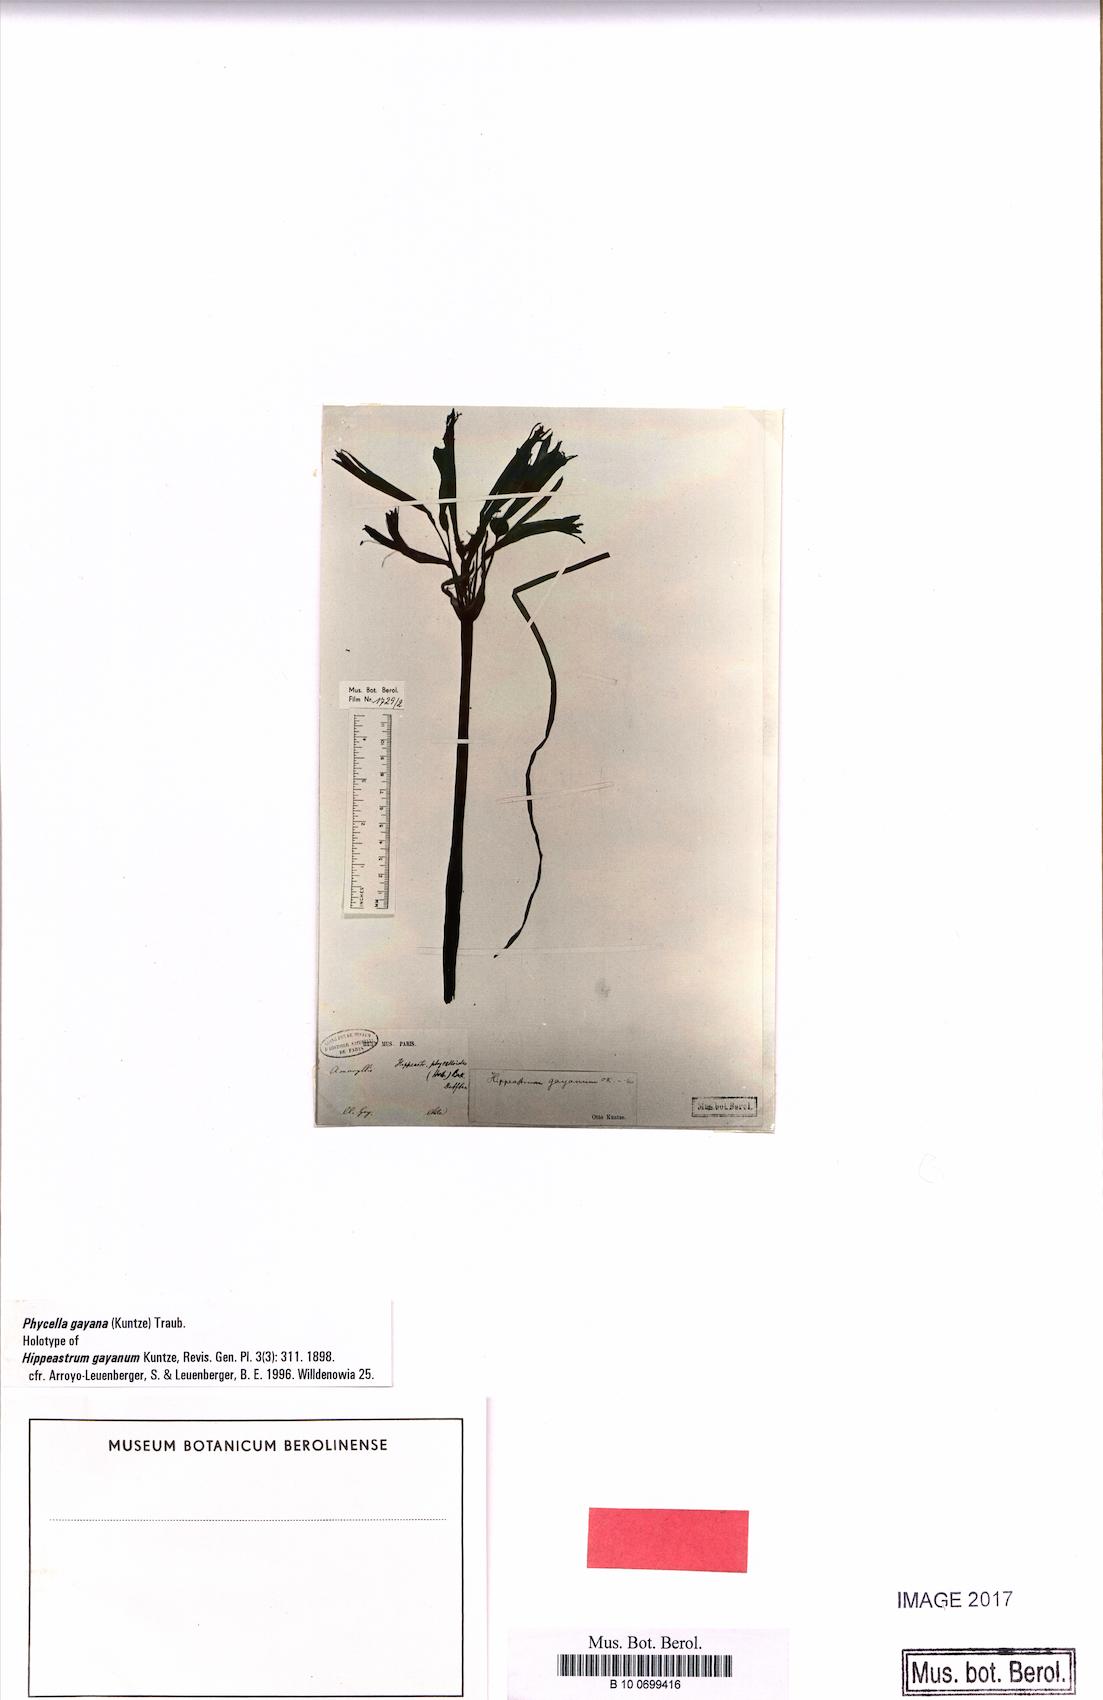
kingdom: Plantae
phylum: Tracheophyta
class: Liliopsida
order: Asparagales
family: Amaryllidaceae
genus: Zephyranthes
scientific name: Zephyranthes tenuiflora
